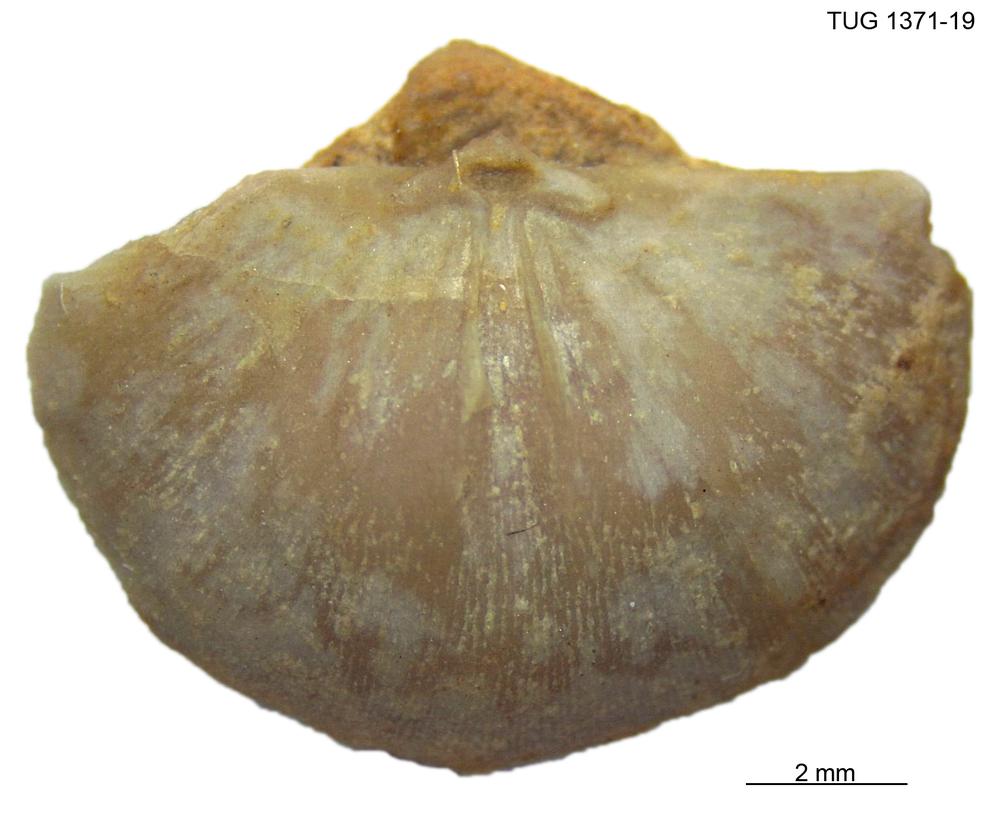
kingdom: Animalia
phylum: Brachiopoda
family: Sowerbyellidae
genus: Eochonetes
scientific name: Eochonetes
